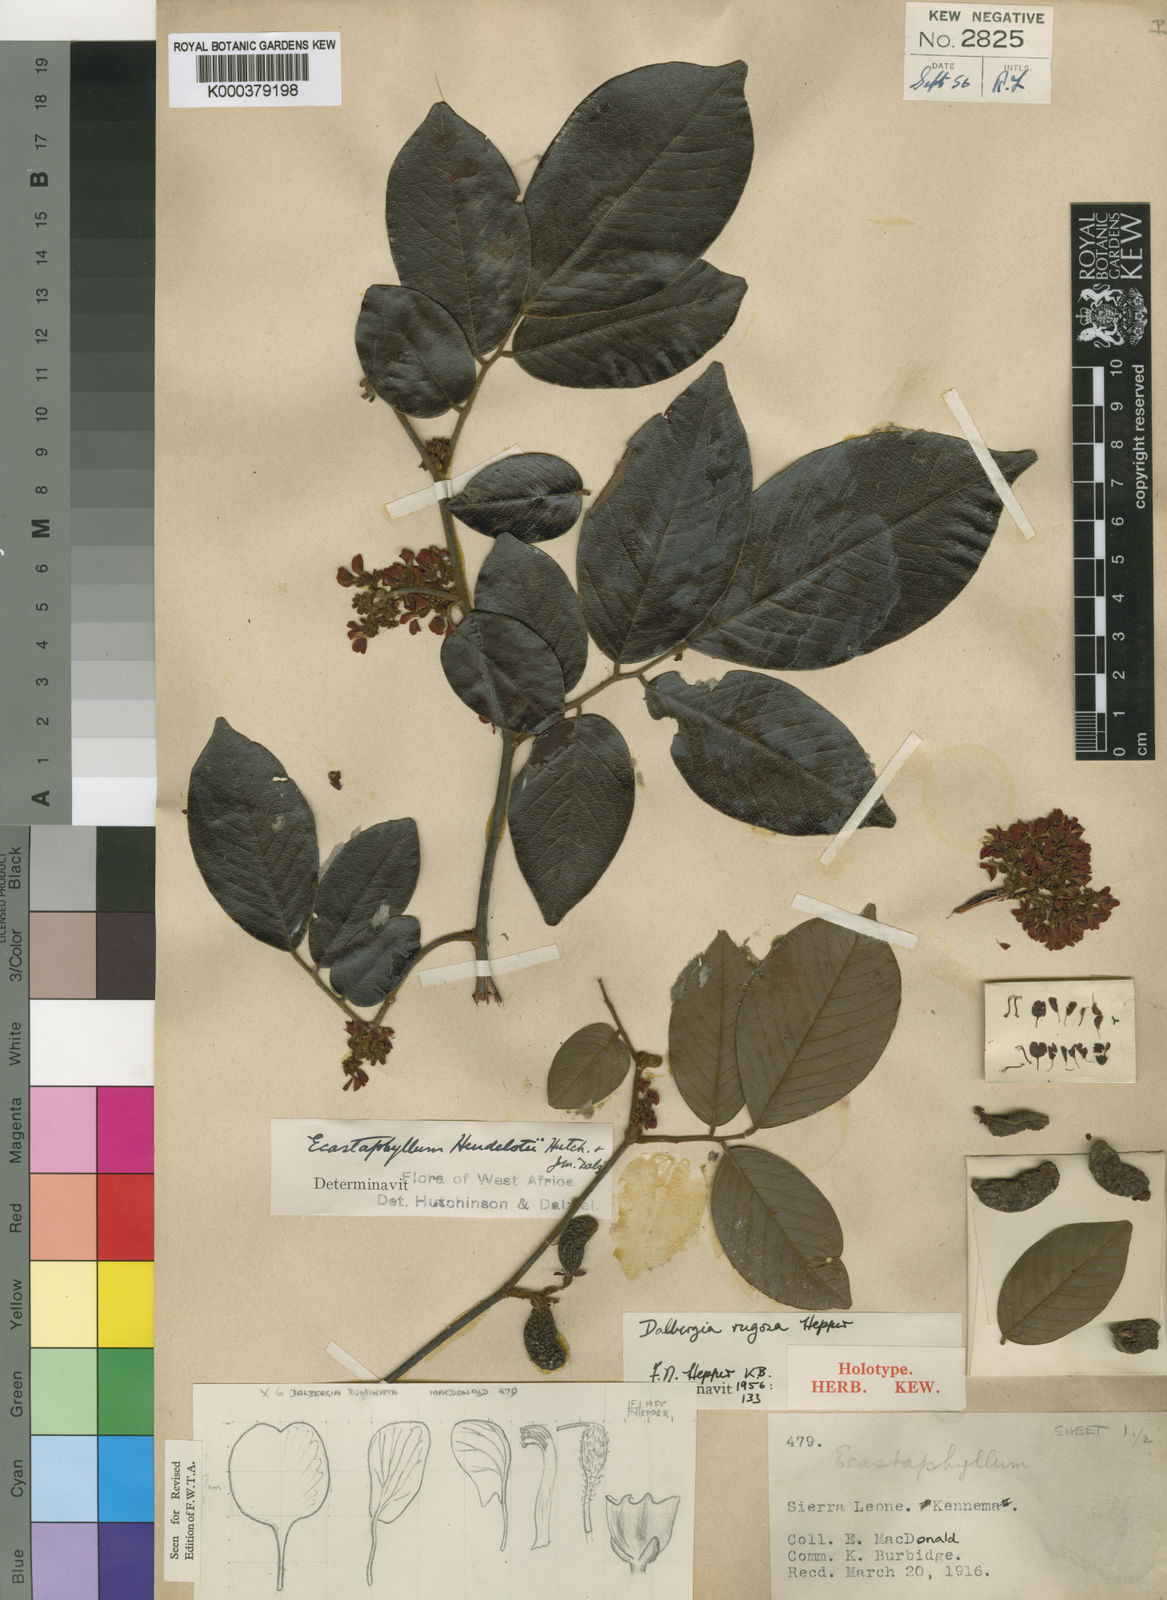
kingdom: Plantae
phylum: Tracheophyta
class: Magnoliopsida
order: Fabales
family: Fabaceae
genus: Dalbergia
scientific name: Dalbergia rugosa
